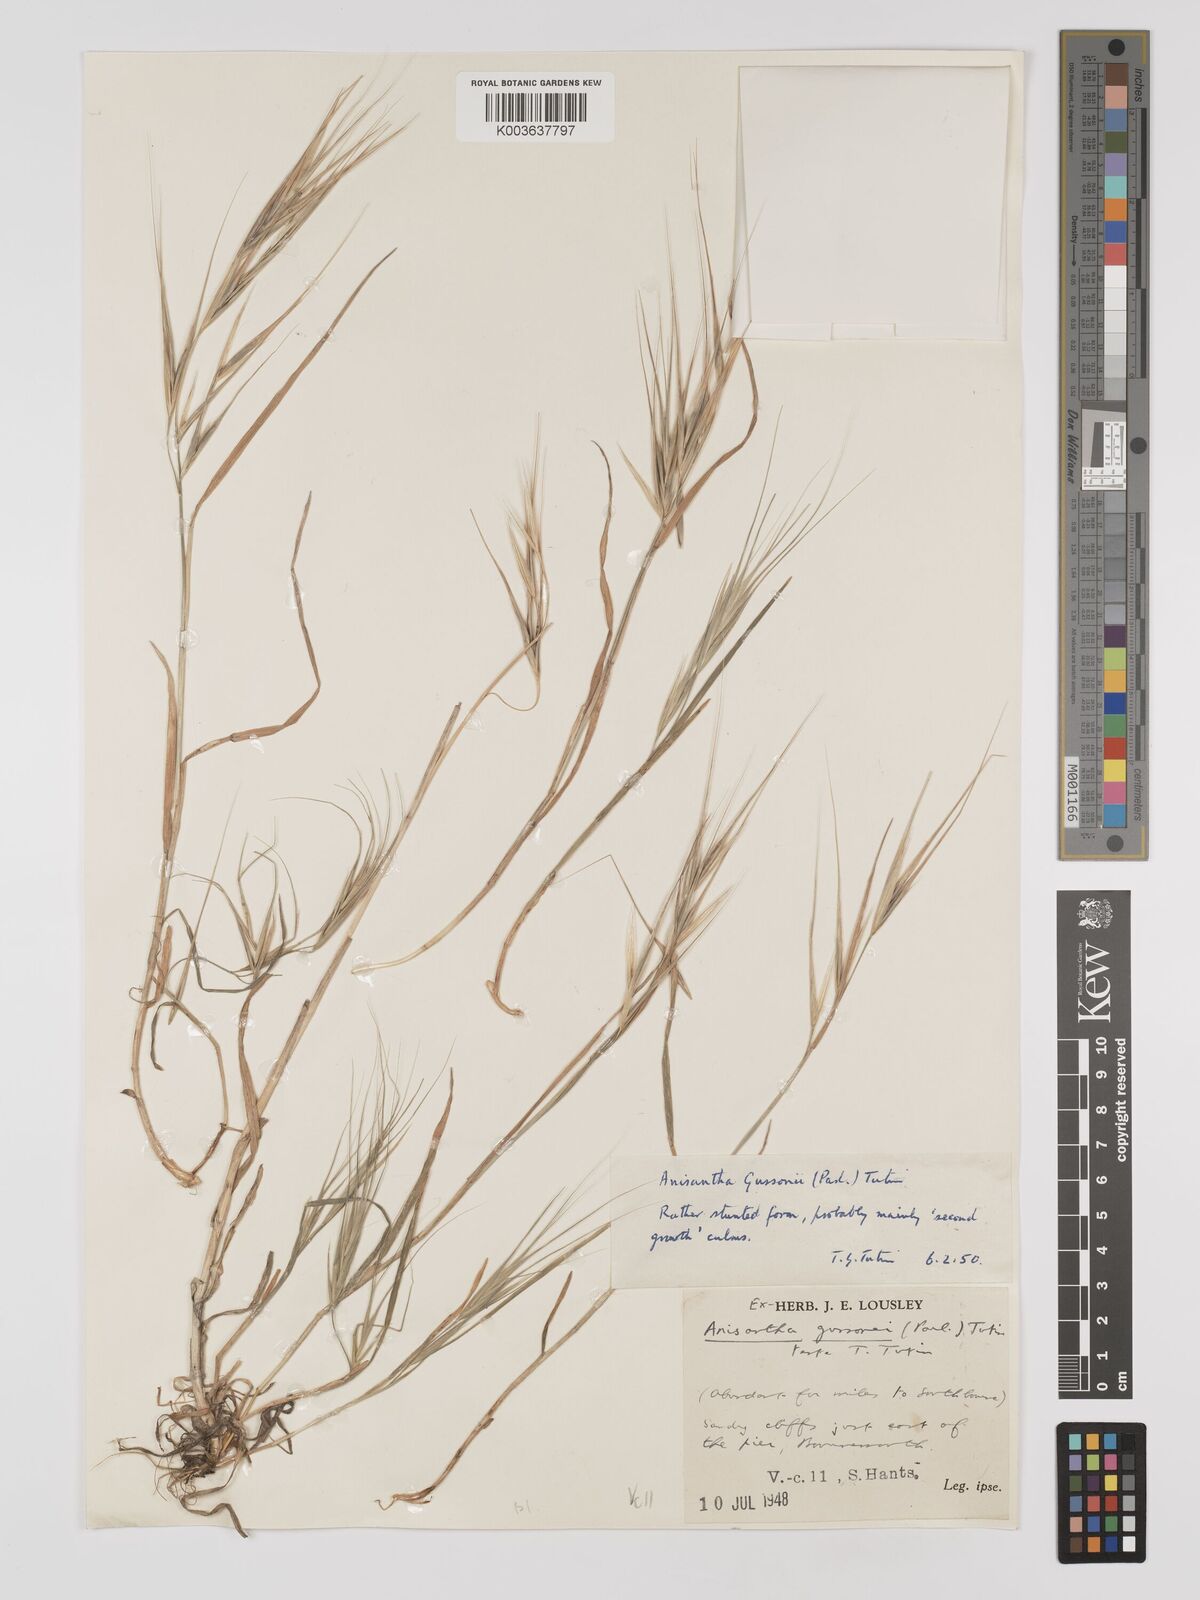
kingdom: Plantae
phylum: Tracheophyta
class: Liliopsida
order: Poales
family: Poaceae
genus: Bromus
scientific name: Bromus
